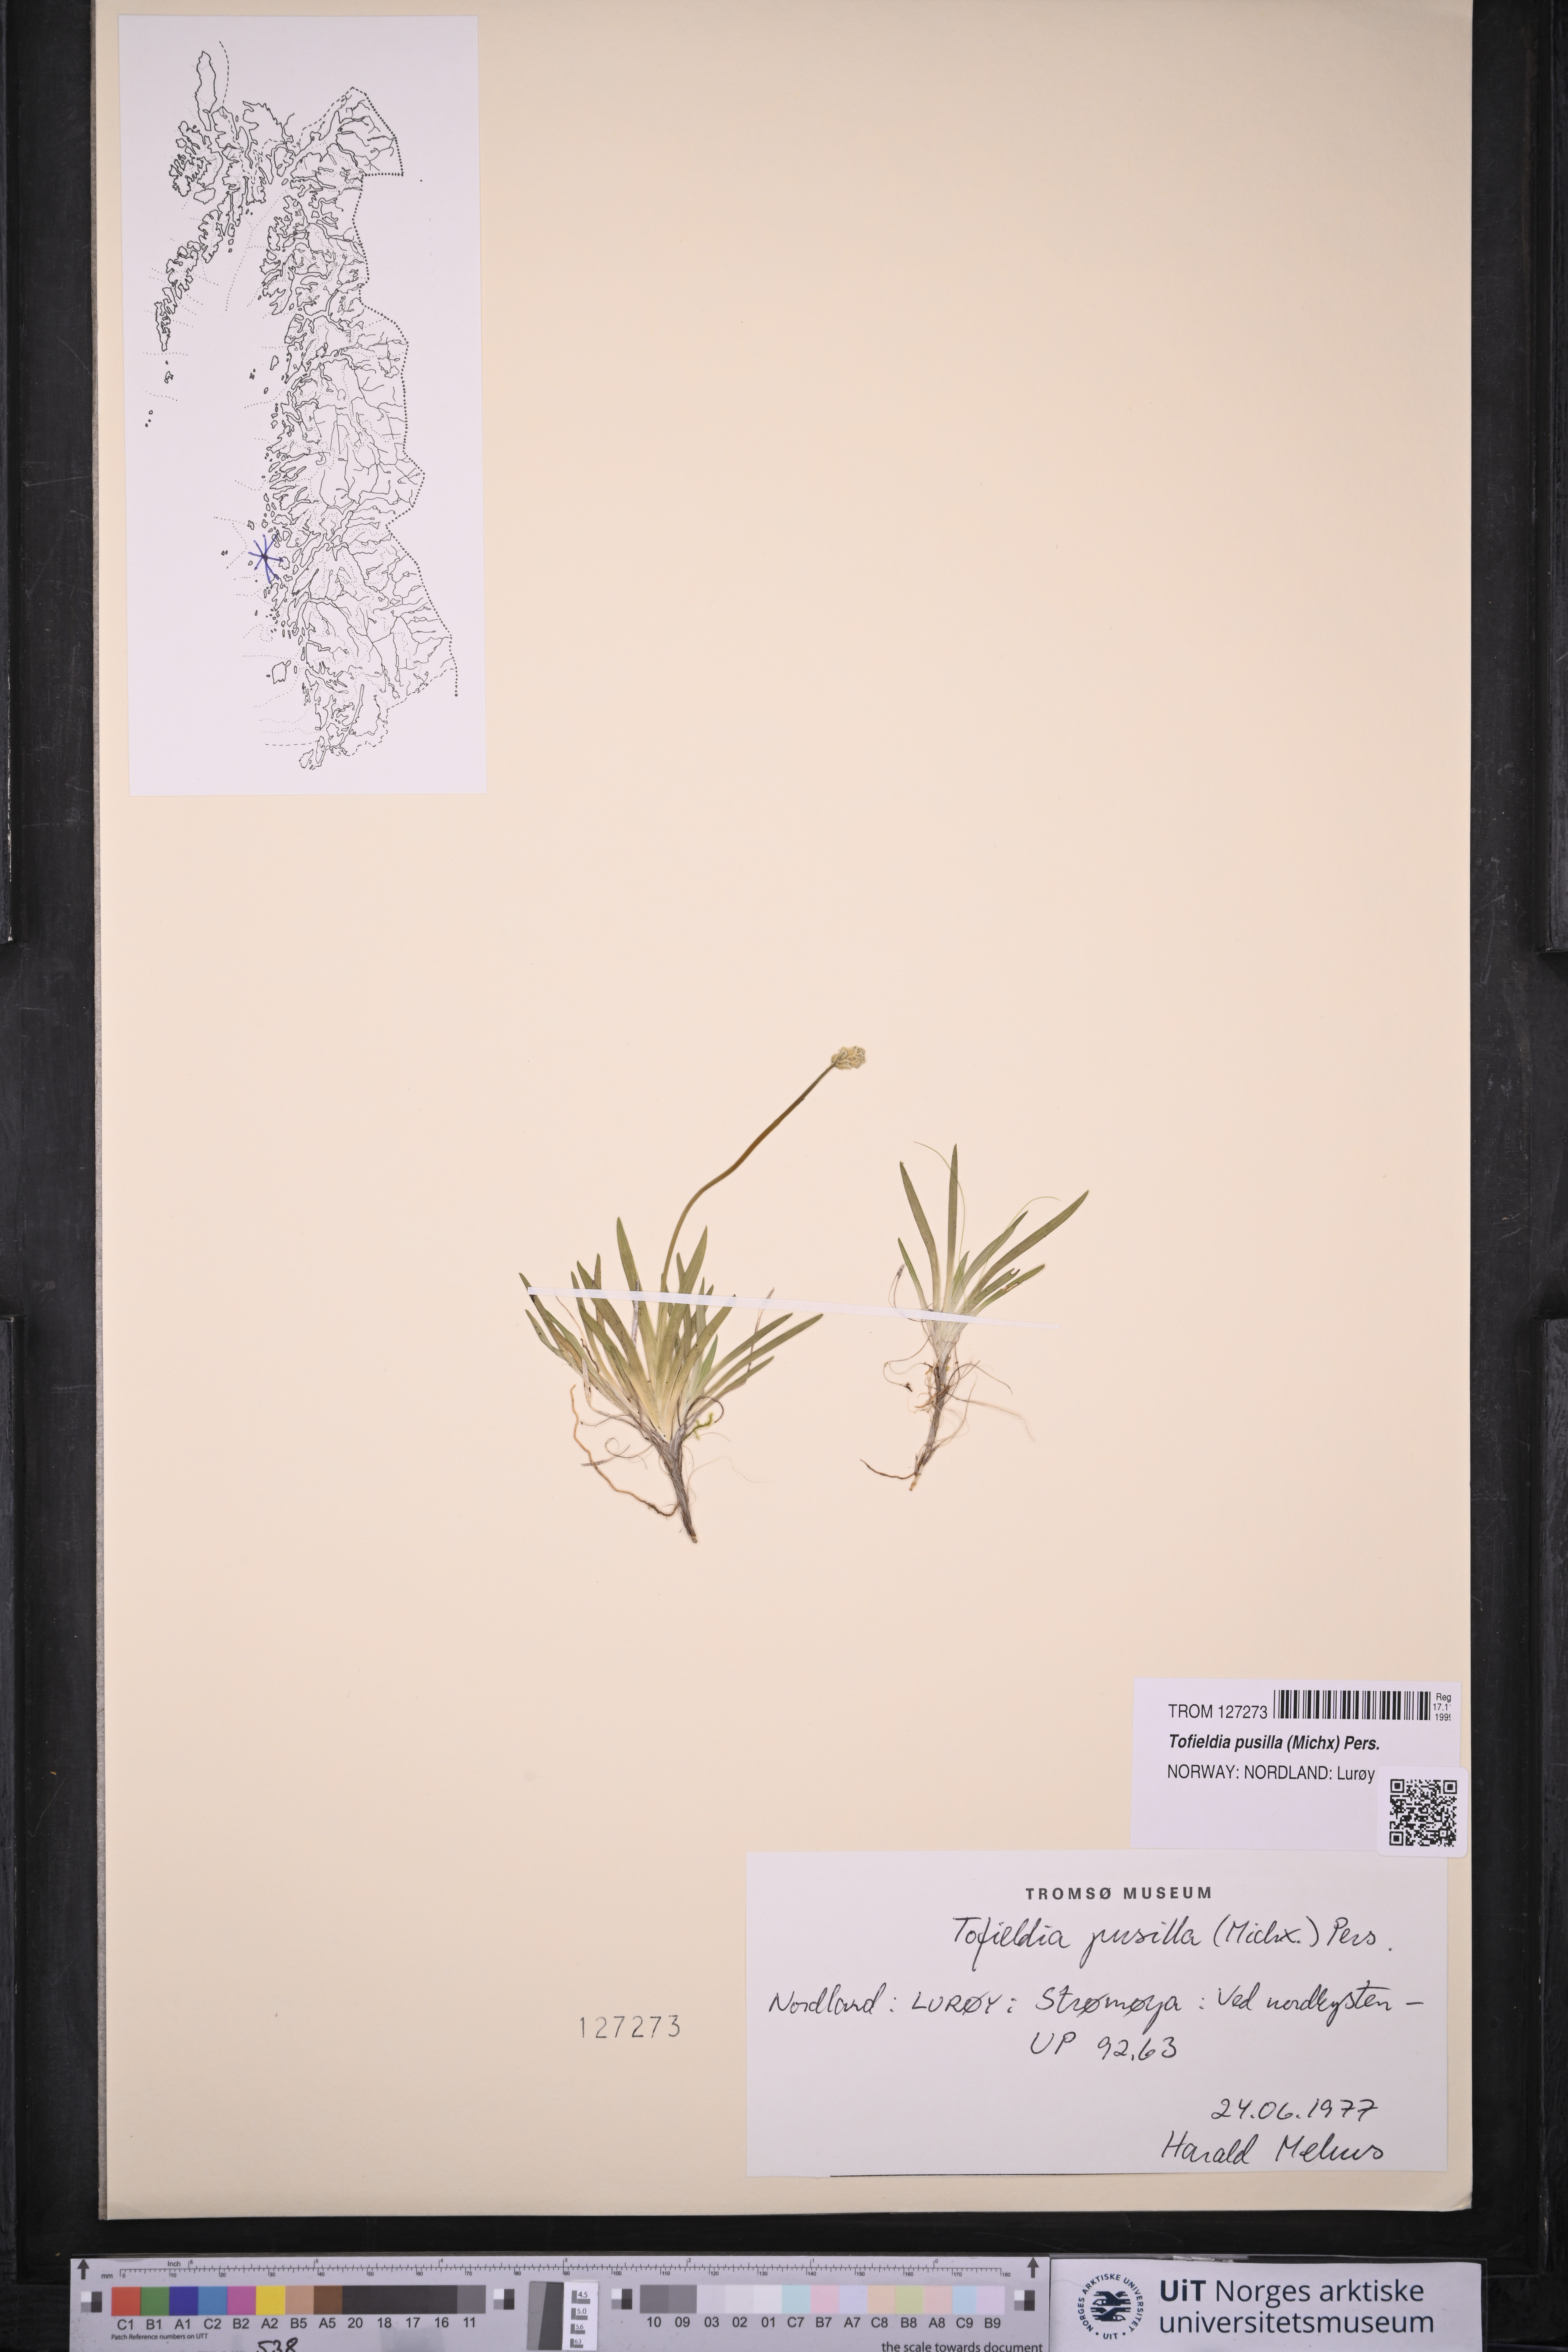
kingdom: Plantae
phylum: Tracheophyta
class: Liliopsida
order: Alismatales
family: Tofieldiaceae
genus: Tofieldia
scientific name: Tofieldia pusilla
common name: Scottish false asphodel
